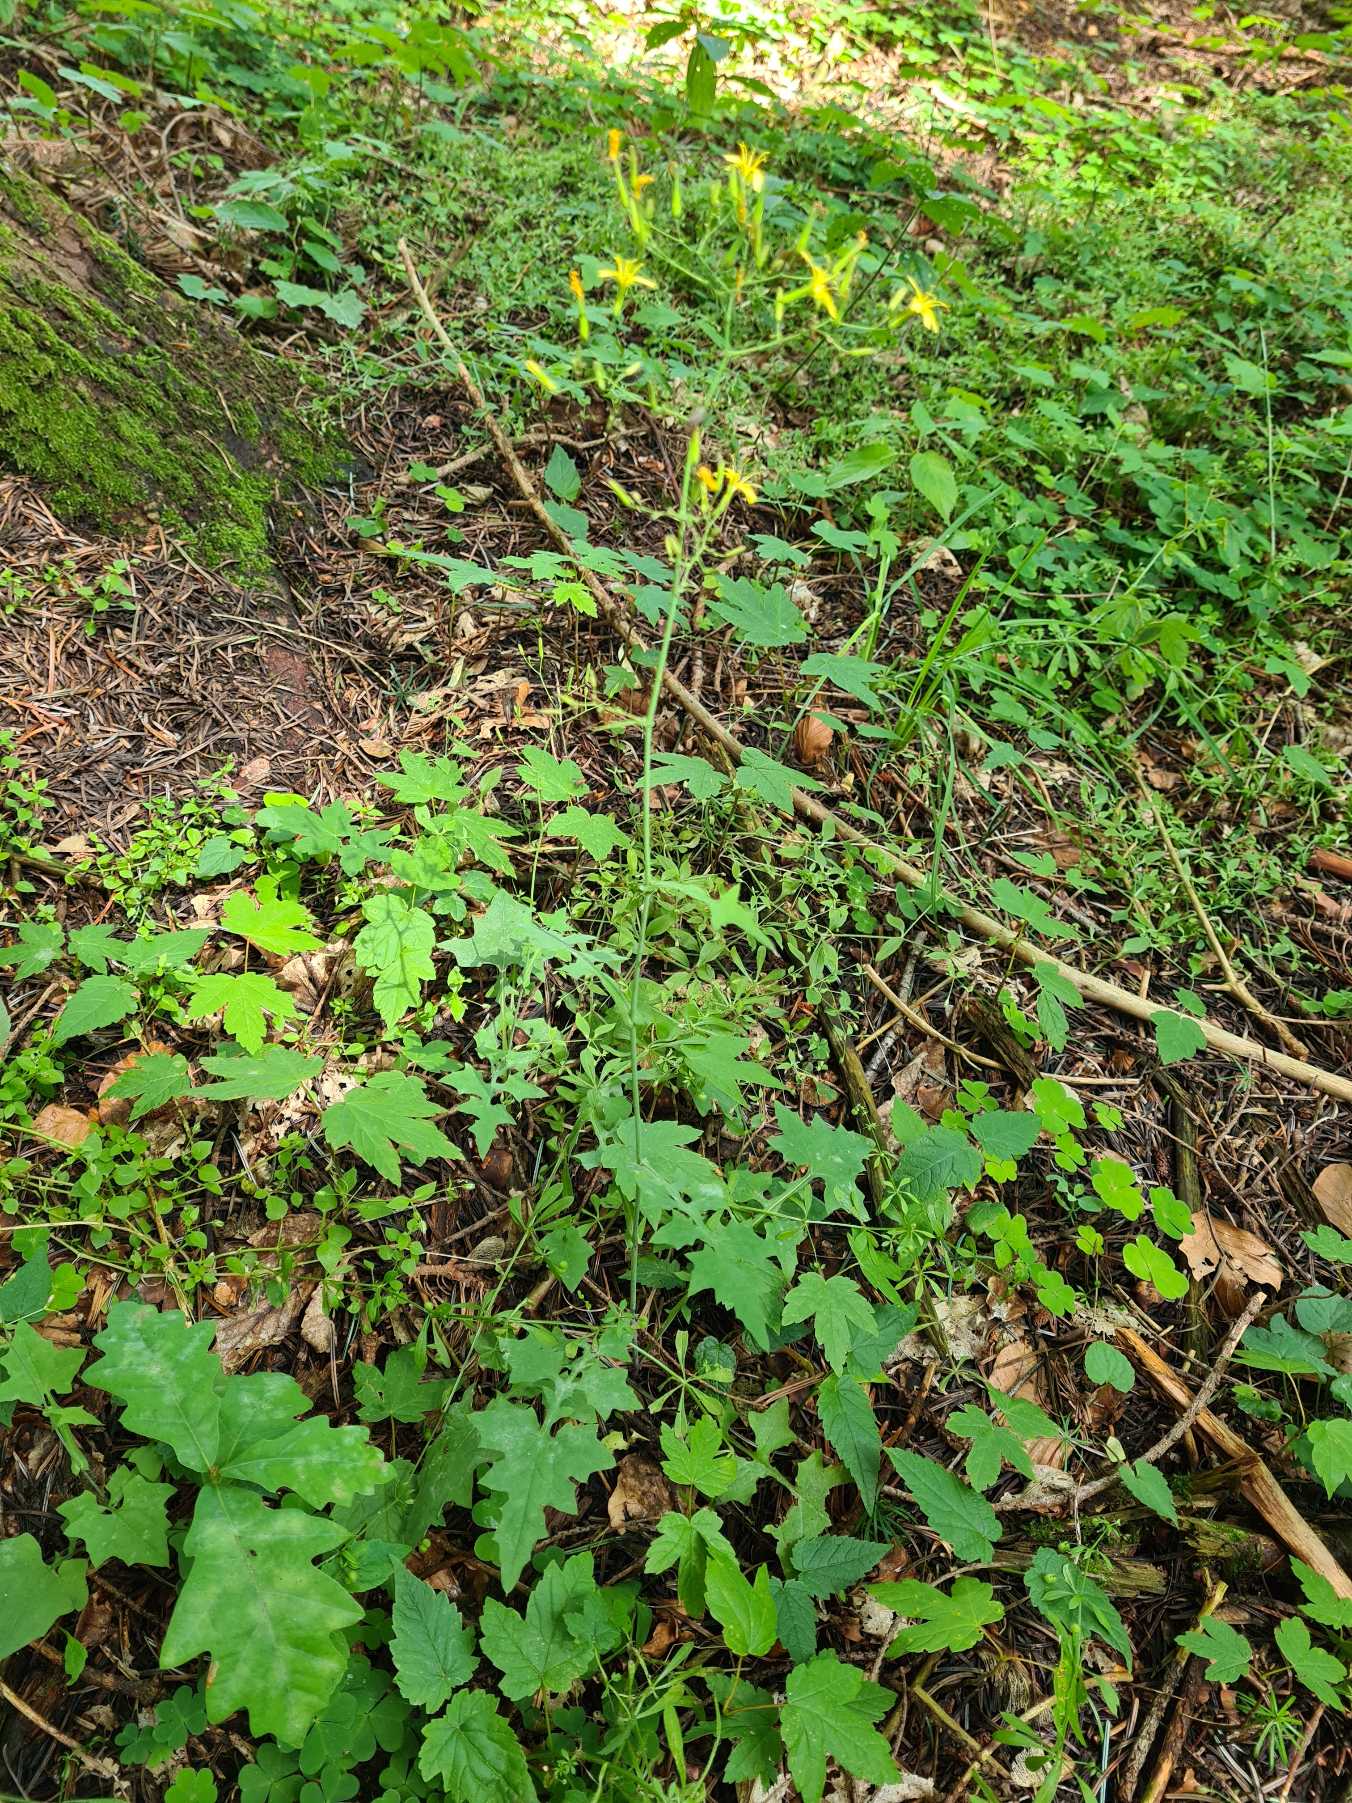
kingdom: Plantae
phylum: Tracheophyta
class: Magnoliopsida
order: Asterales
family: Asteraceae
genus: Mycelis
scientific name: Mycelis muralis
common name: Skov-salat
